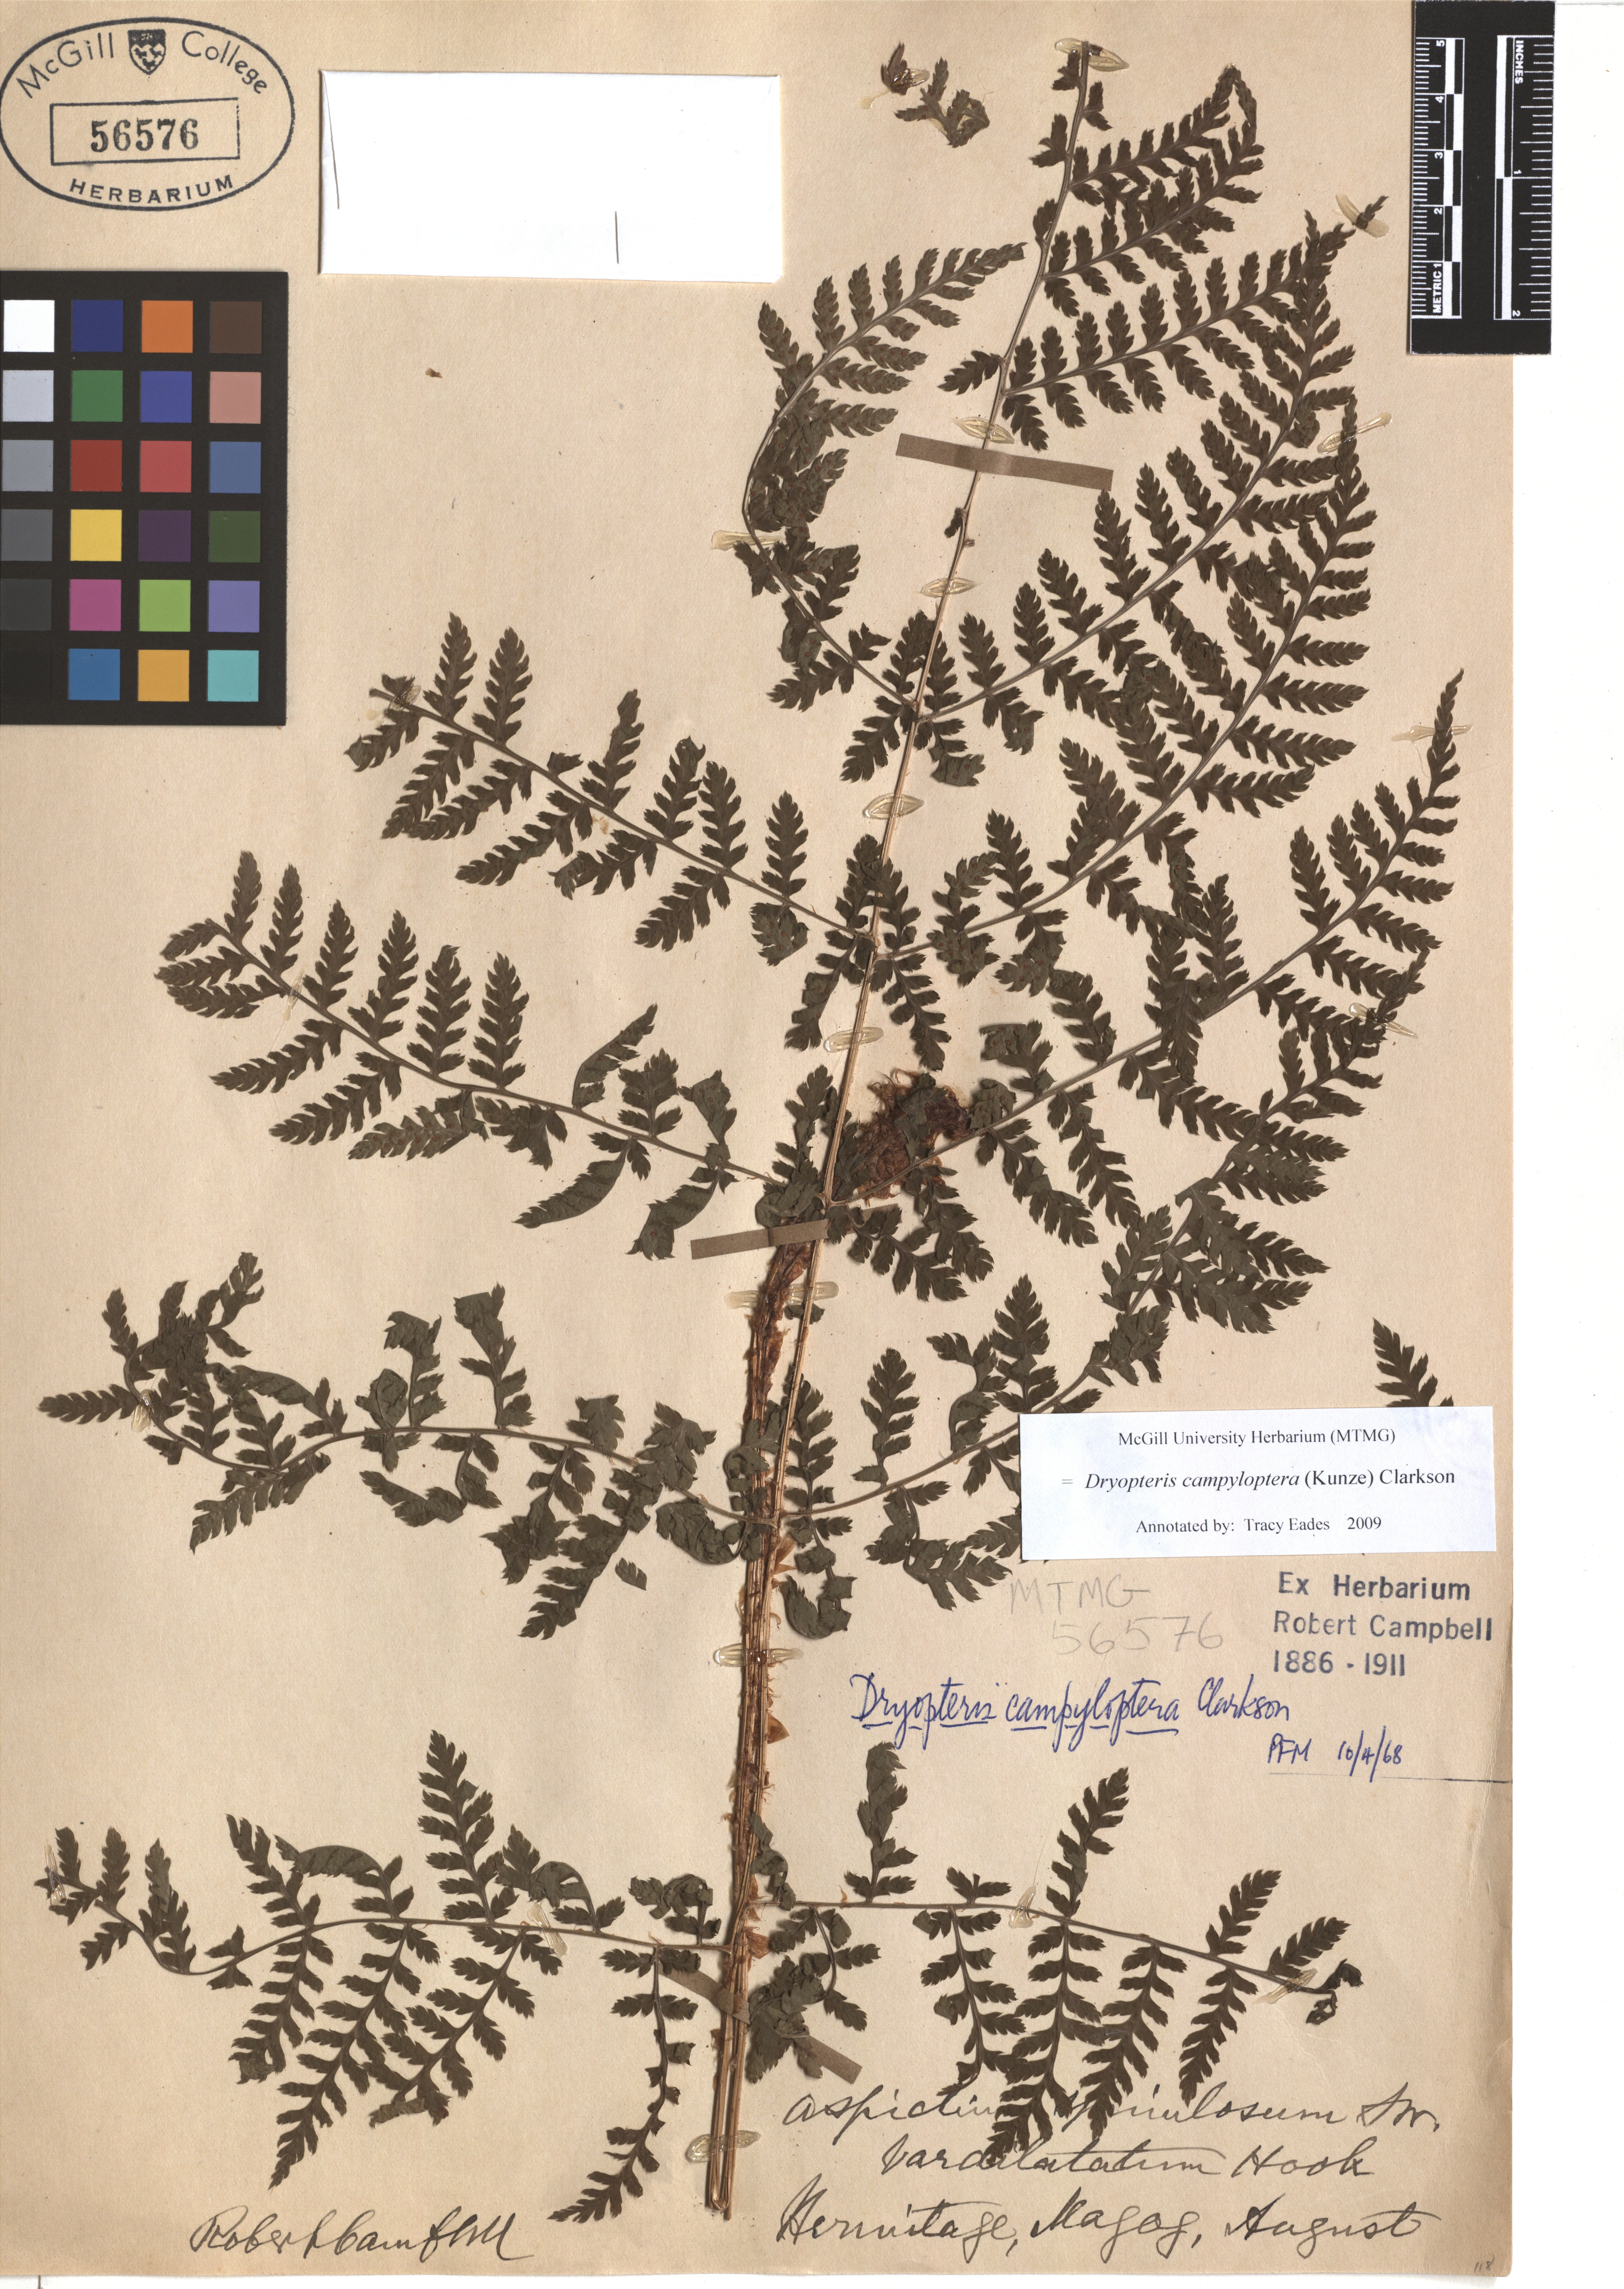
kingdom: Plantae
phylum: Tracheophyta
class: Polypodiopsida
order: Polypodiales
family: Dryopteridaceae
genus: Dryopteris
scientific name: Dryopteris campyloptera
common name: Mountain wood fern
